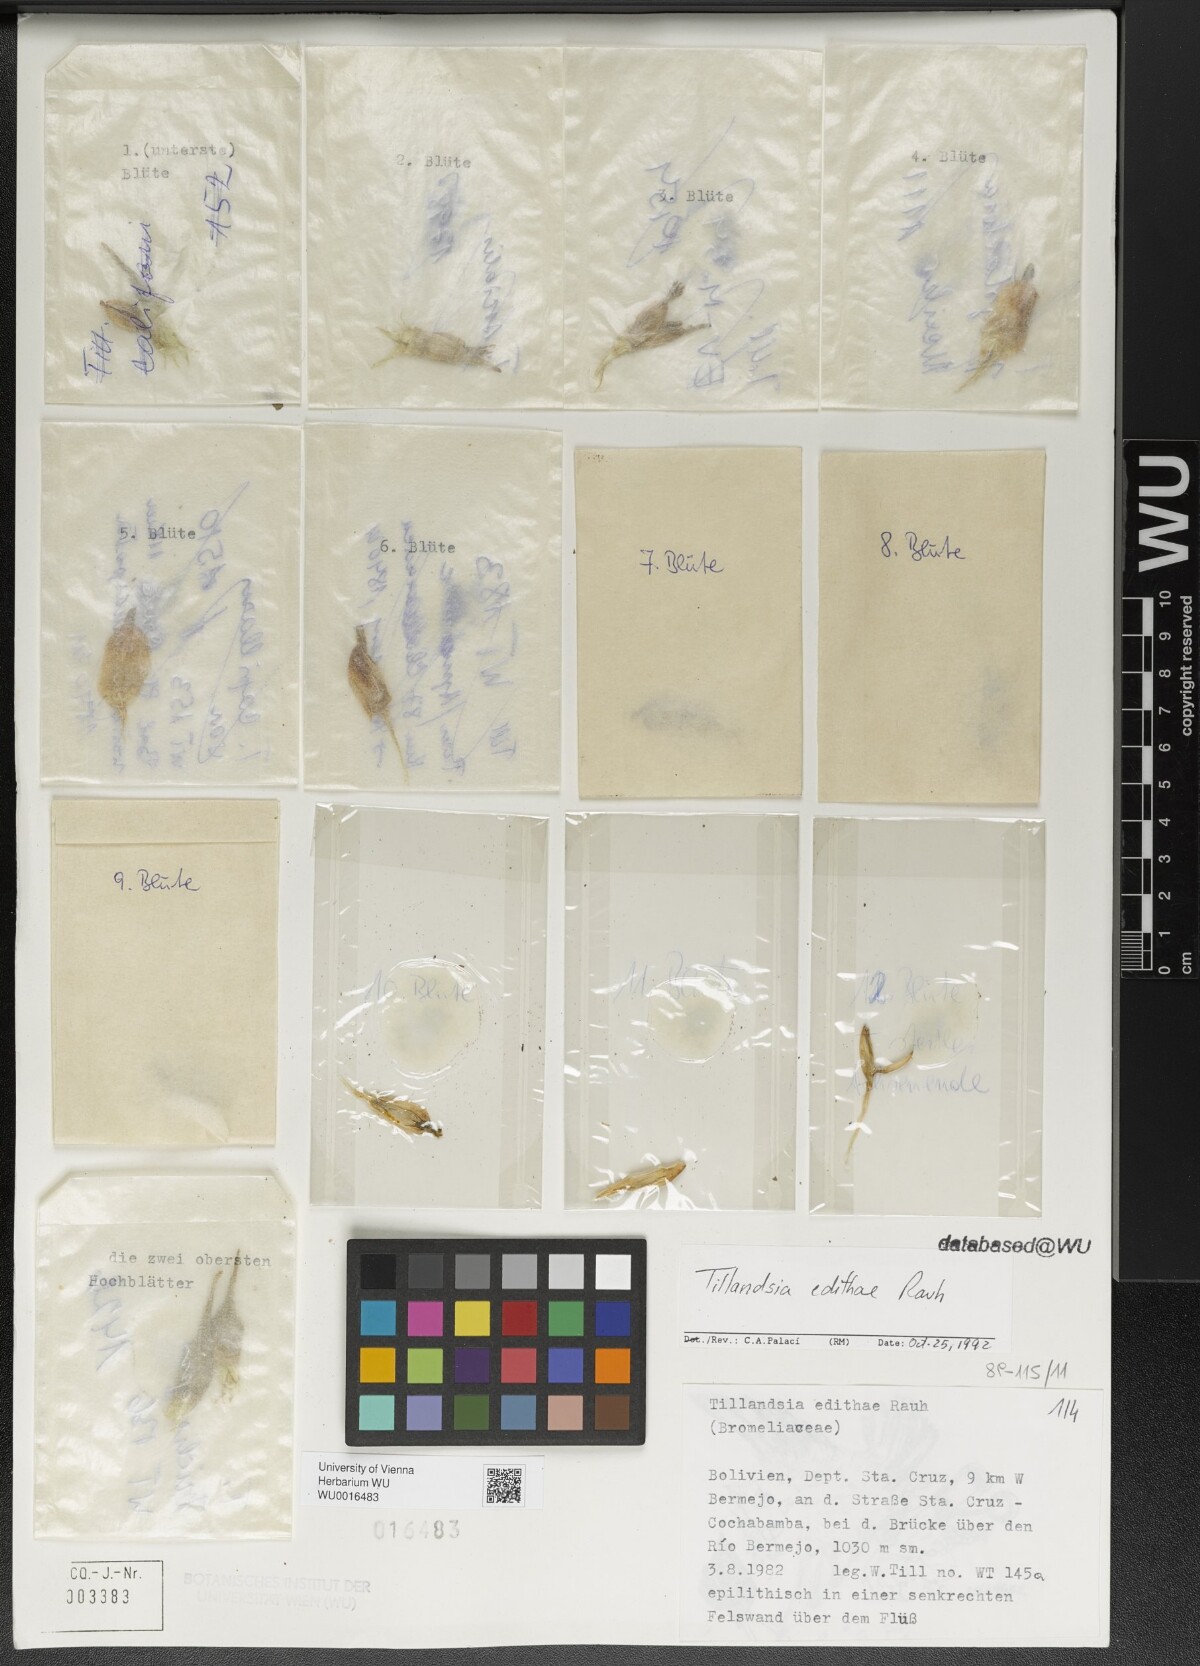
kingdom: Plantae
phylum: Tracheophyta
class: Liliopsida
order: Poales
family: Bromeliaceae
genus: Tillandsia
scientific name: Tillandsia edithae
